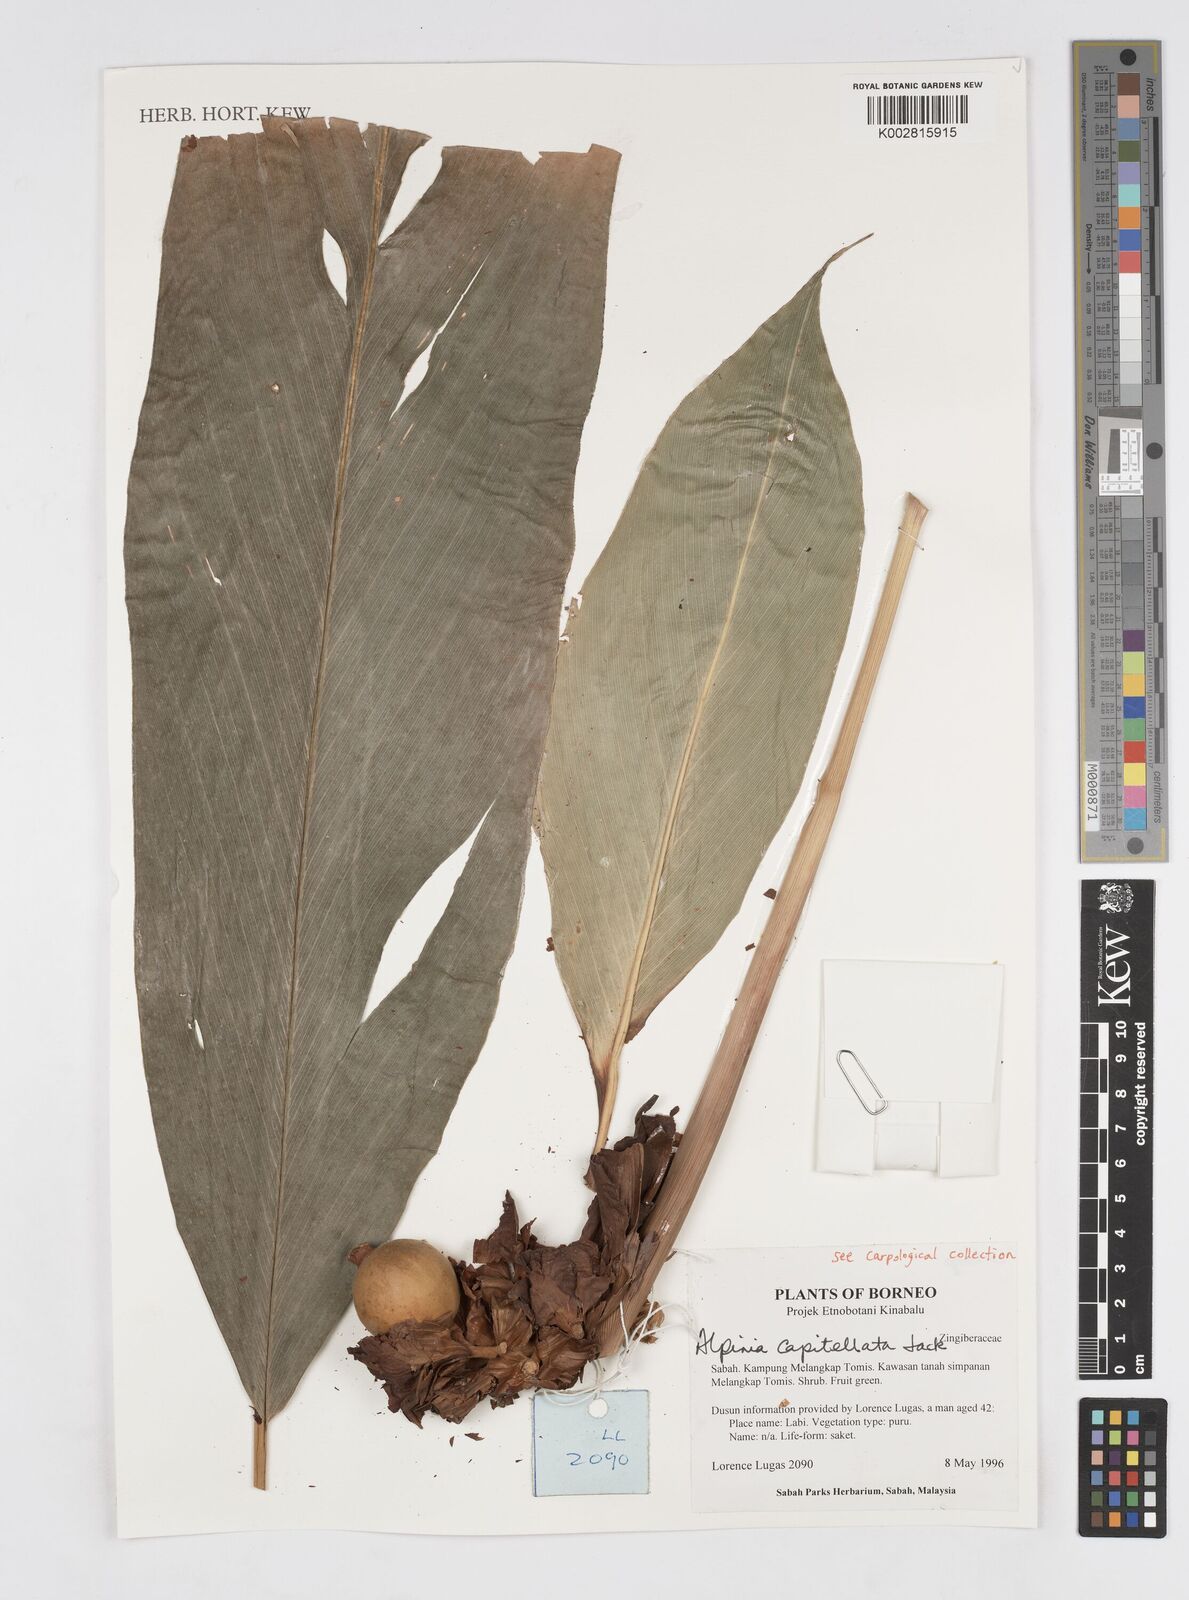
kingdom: Plantae
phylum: Tracheophyta
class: Liliopsida
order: Zingiberales
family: Zingiberaceae
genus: Alpinia
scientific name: Alpinia capitellata
